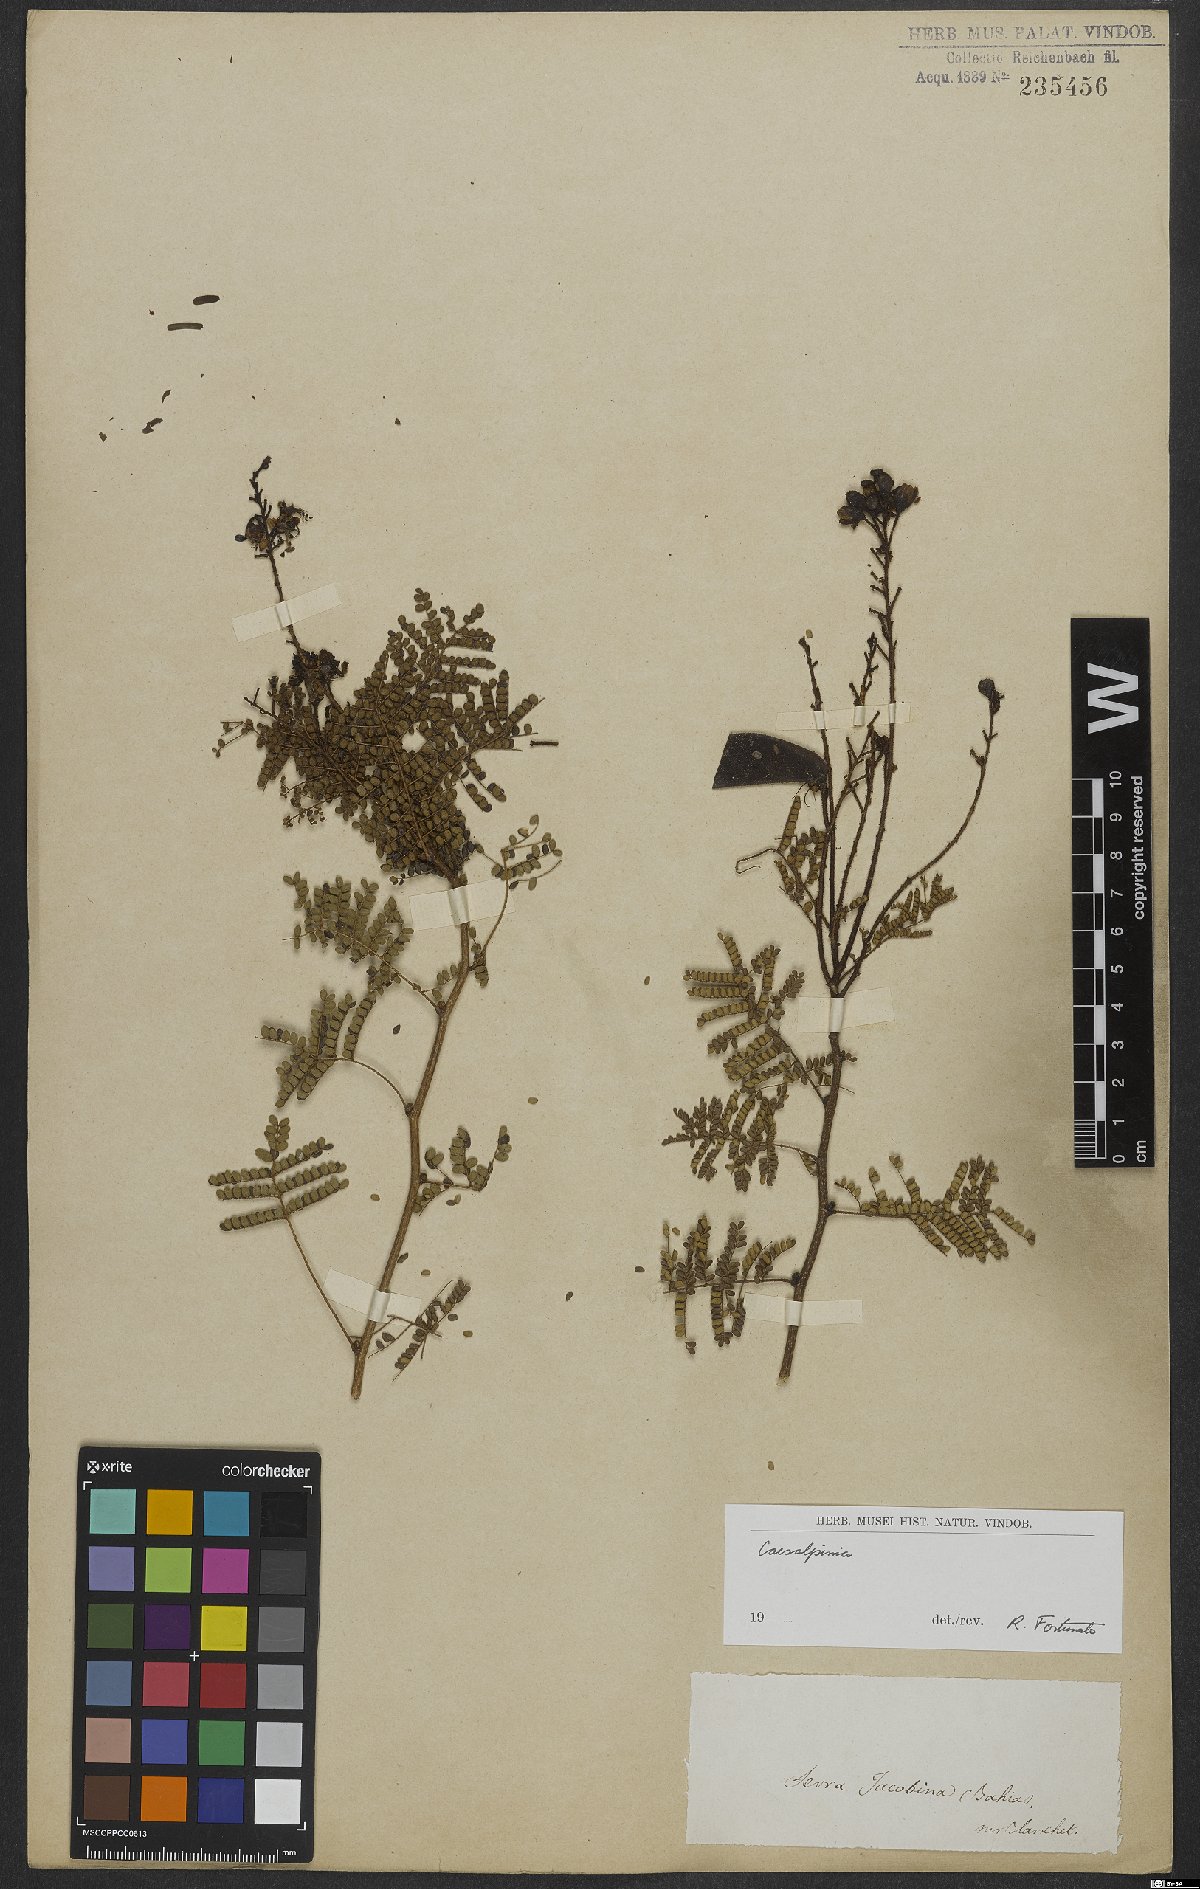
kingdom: Plantae
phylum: Tracheophyta
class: Magnoliopsida
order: Fabales
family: Fabaceae
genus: Caesalpinia
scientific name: Caesalpinia
